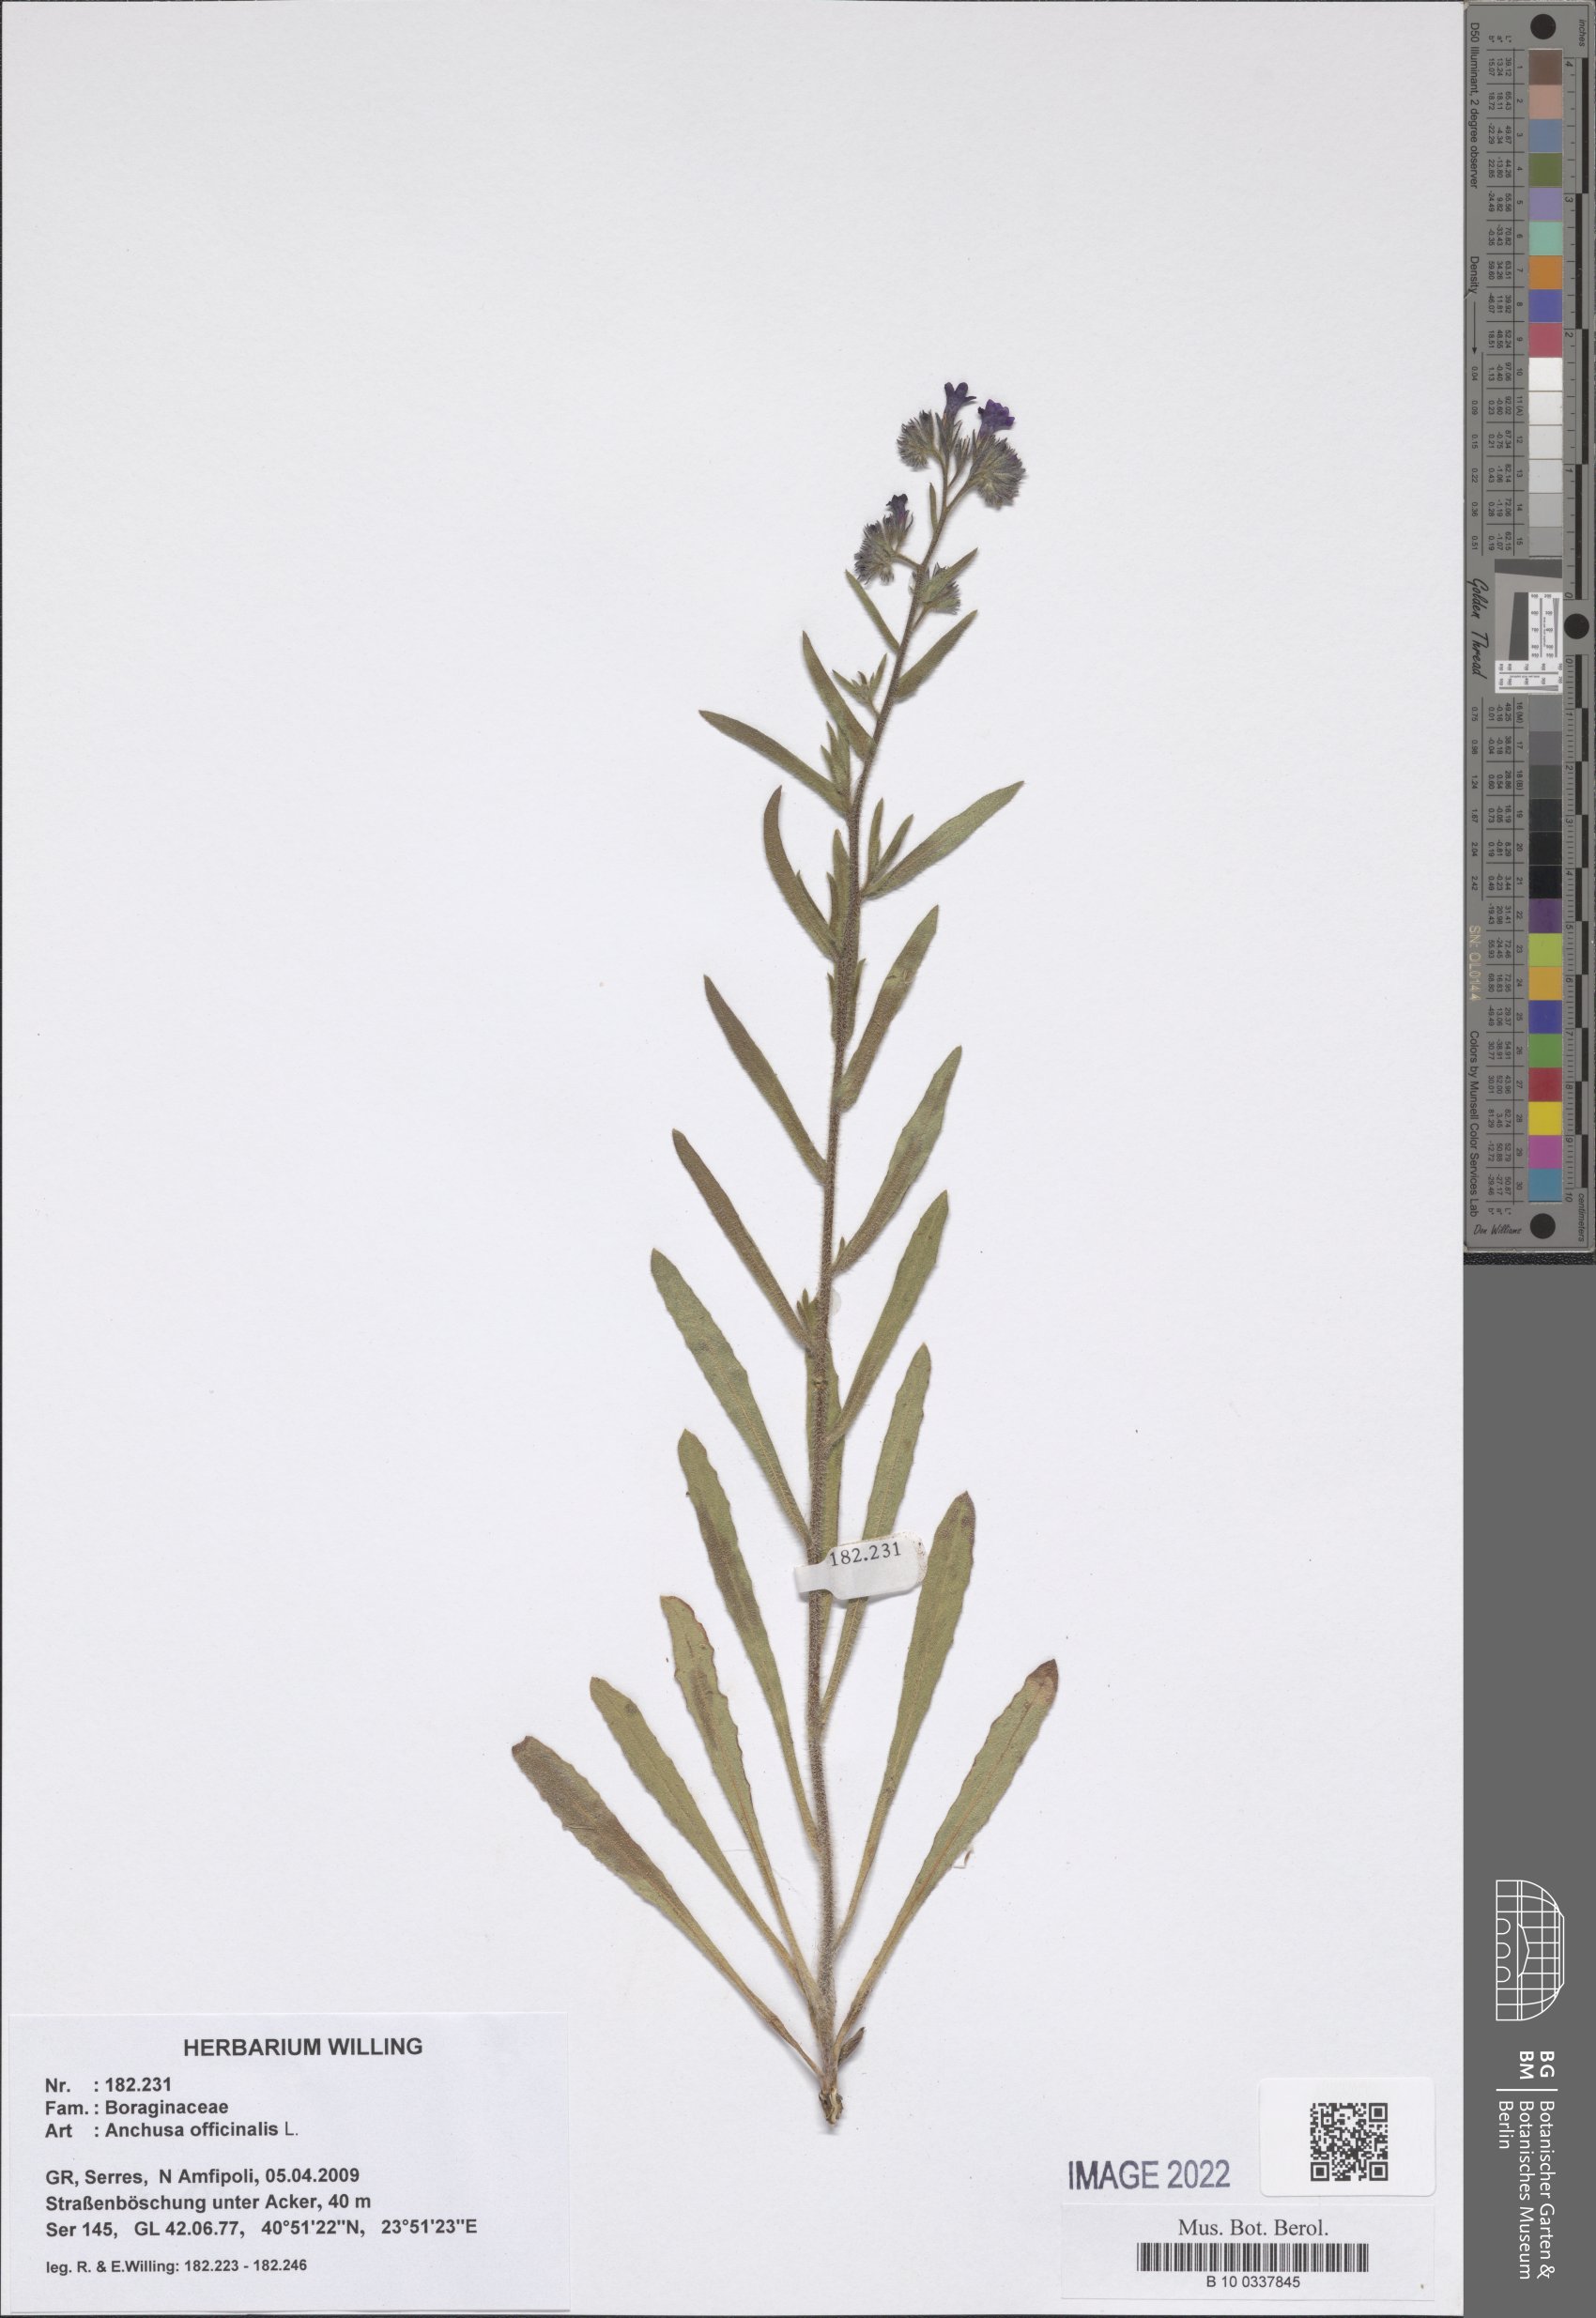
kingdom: Plantae
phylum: Tracheophyta
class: Magnoliopsida
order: Boraginales
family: Boraginaceae
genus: Anchusa
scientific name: Anchusa officinalis
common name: Alkanet
